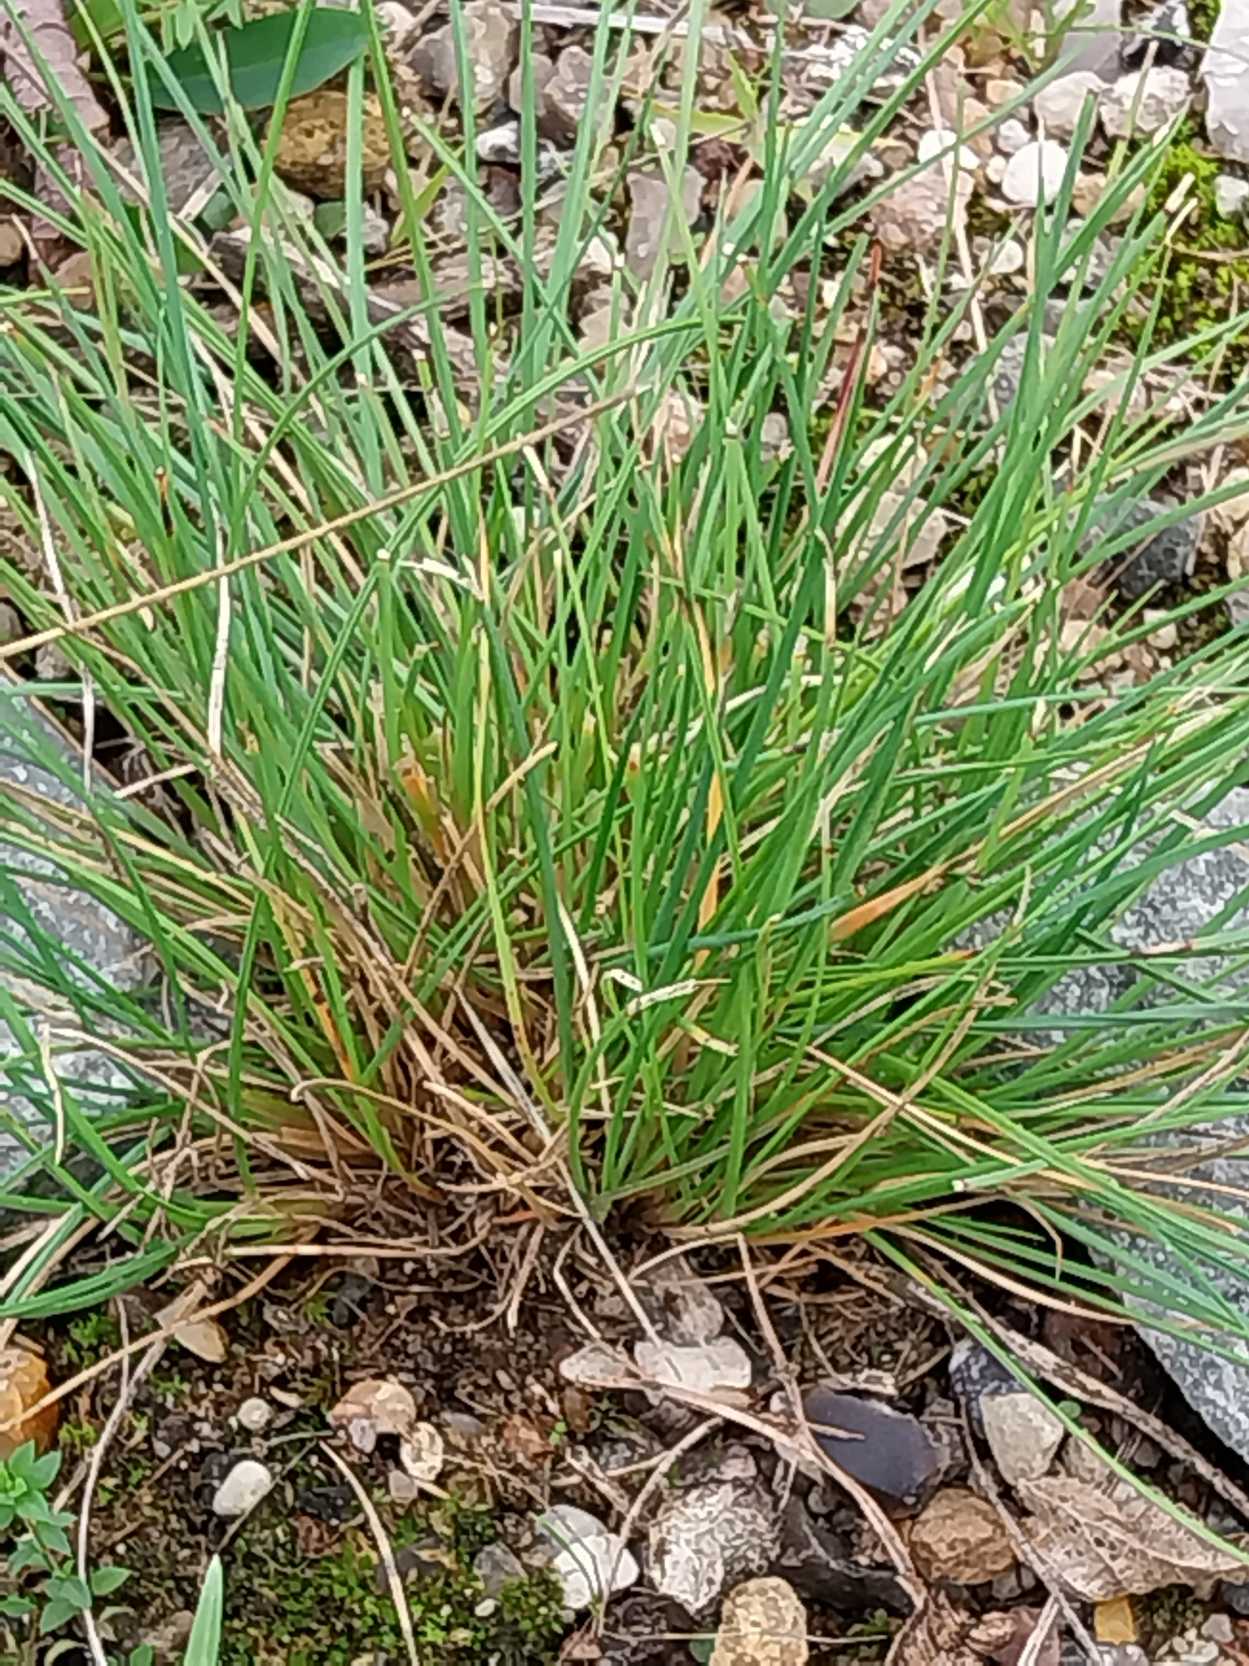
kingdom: Plantae
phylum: Tracheophyta
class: Liliopsida
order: Poales
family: Poaceae
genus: Festuca
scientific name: Festuca trachyphylla
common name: Bakke-svingel
